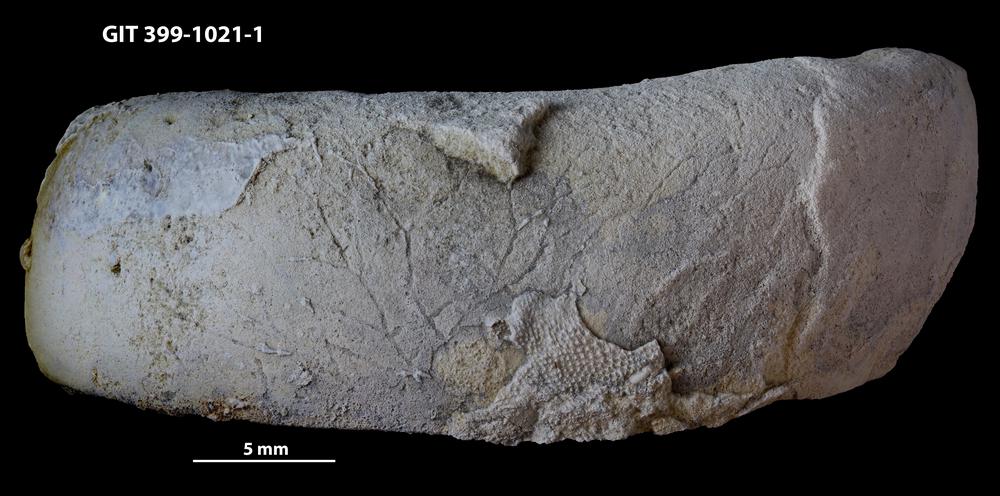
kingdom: Animalia
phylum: Bryozoa
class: Stenolaemata
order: Cyclostomatida
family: Corynotrypidae
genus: Corynotrypa
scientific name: Corynotrypa
